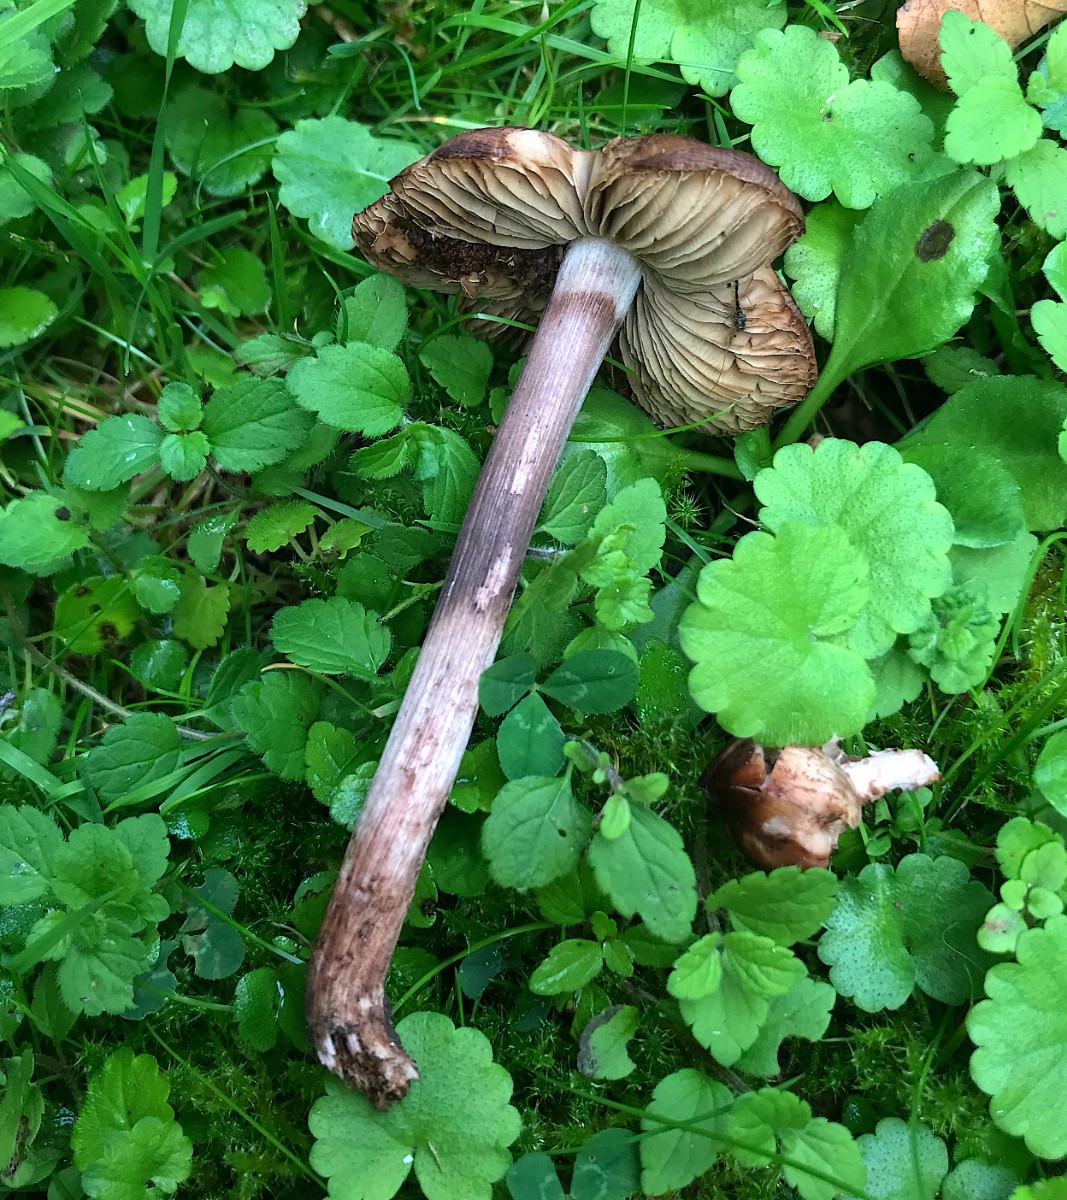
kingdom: Fungi
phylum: Basidiomycota
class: Agaricomycetes
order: Agaricales
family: Inocybaceae
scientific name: Inocybaceae
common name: trævlhatfamilien
